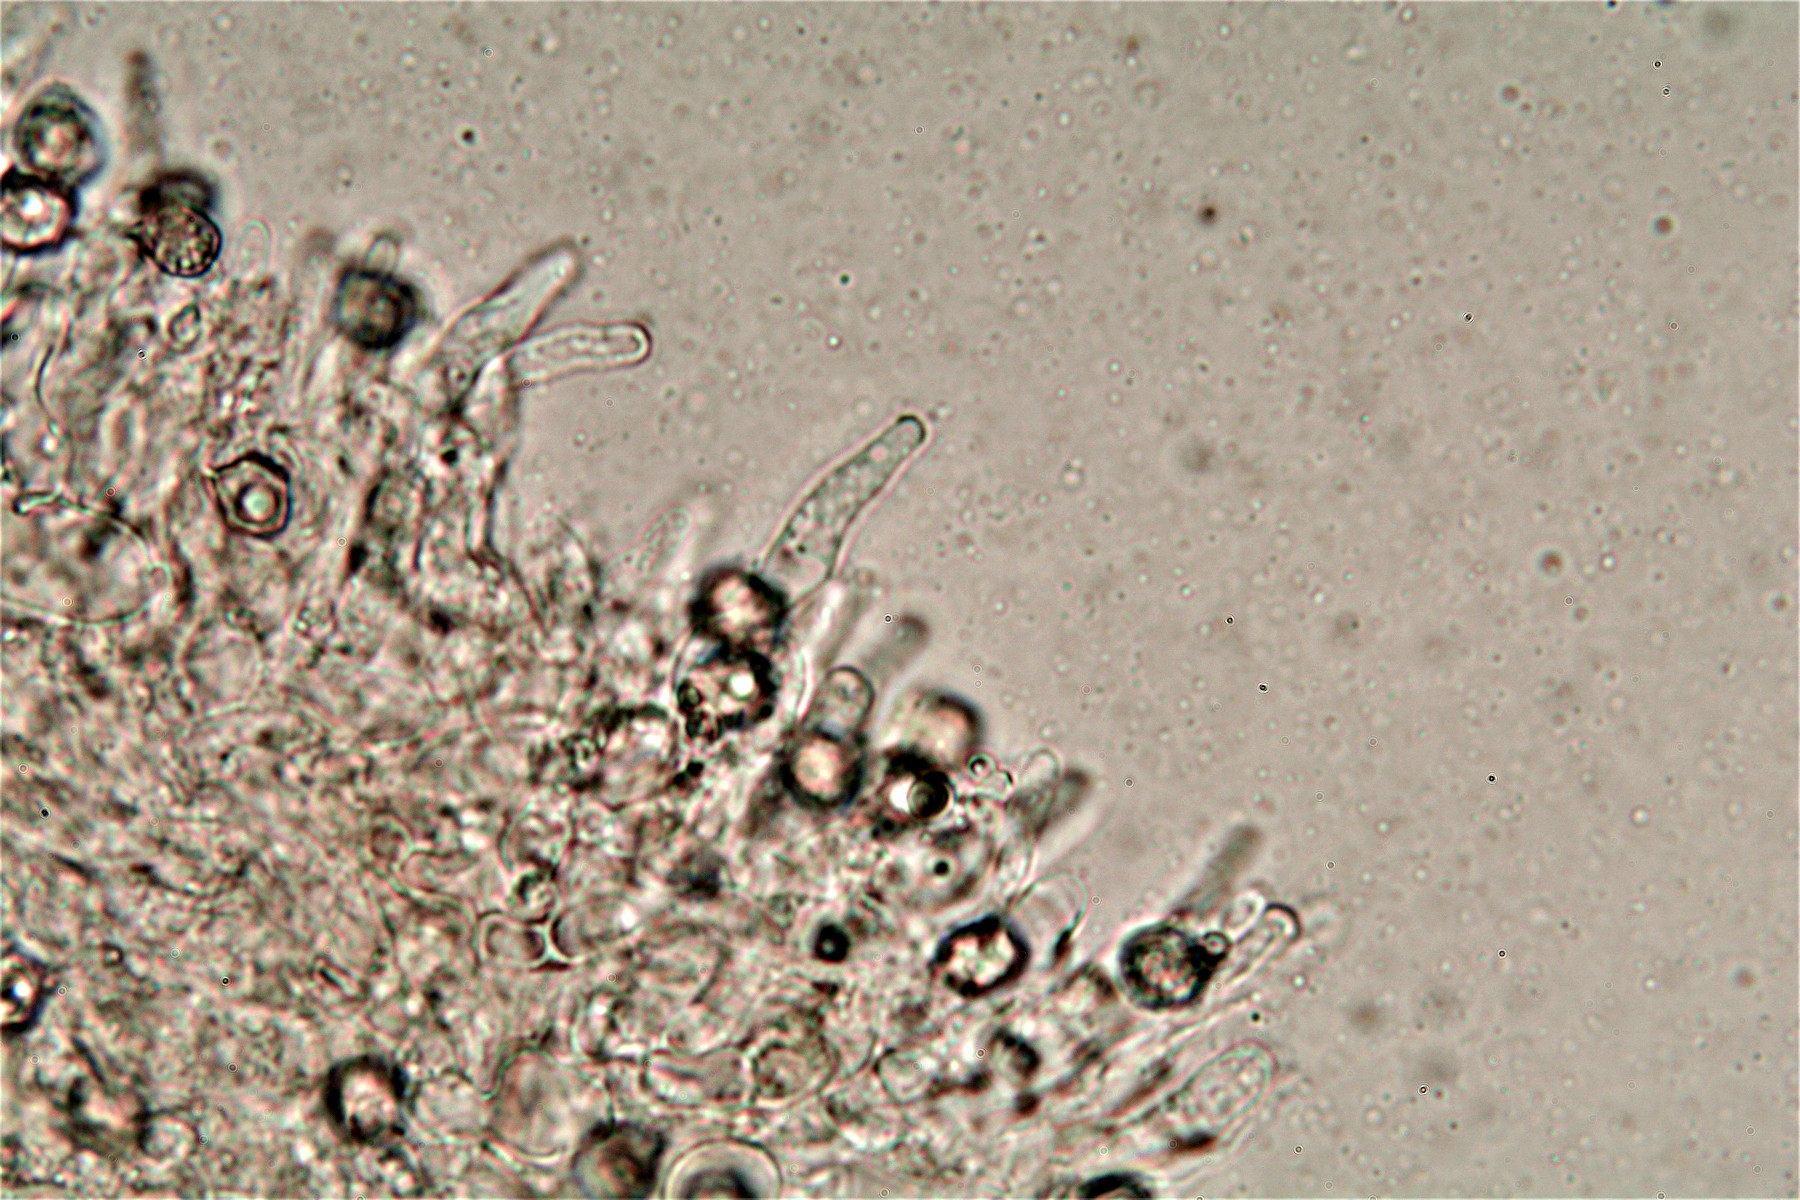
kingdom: Fungi
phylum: Basidiomycota
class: Agaricomycetes
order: Agaricales
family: Entolomataceae
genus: Entoloma
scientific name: Entoloma rhodocylix
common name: fjernbladet rødblad
